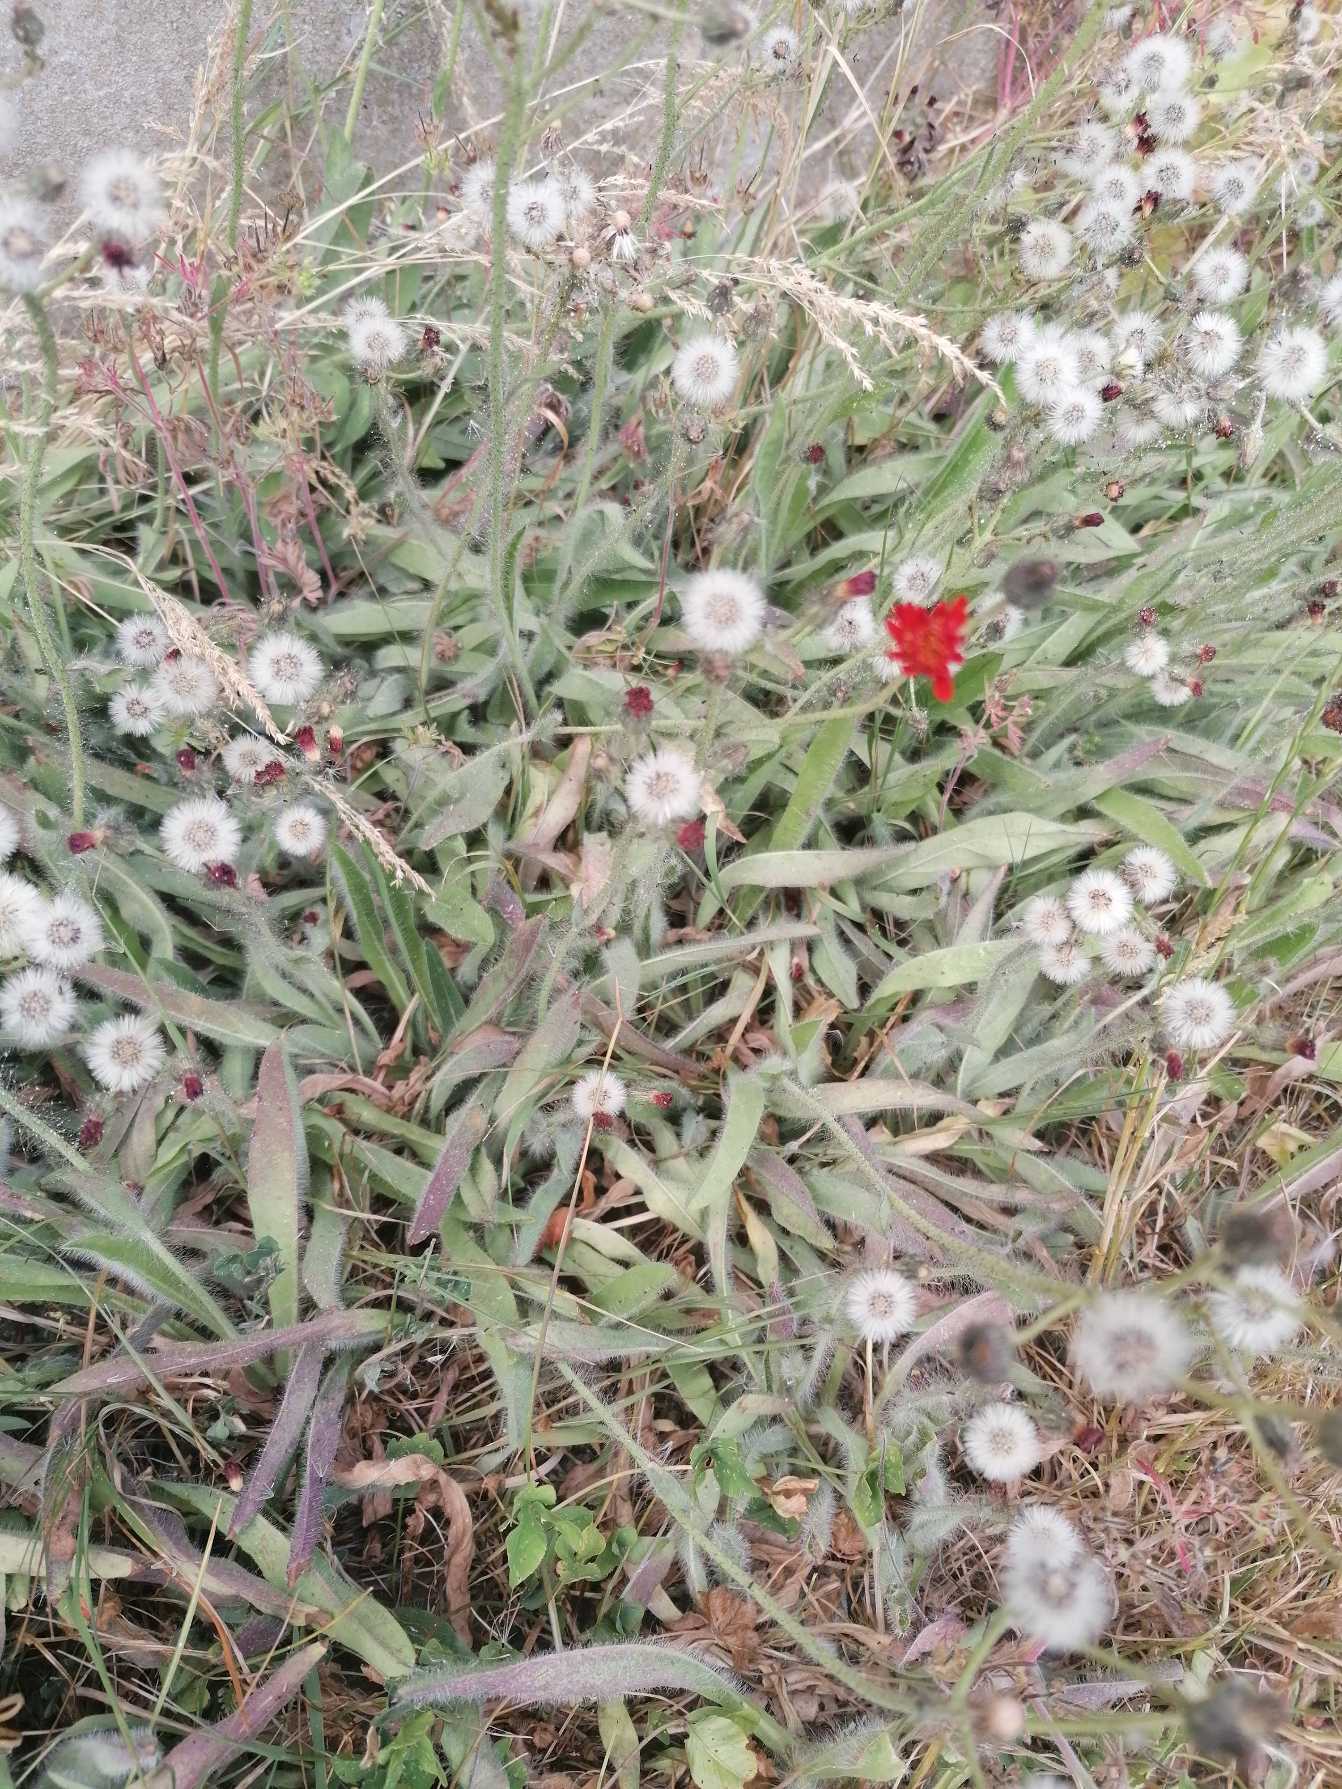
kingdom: Plantae
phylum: Tracheophyta
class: Magnoliopsida
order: Asterales
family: Asteraceae
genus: Pilosella
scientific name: Pilosella aurantiaca
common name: Pomerans-høgeurt
